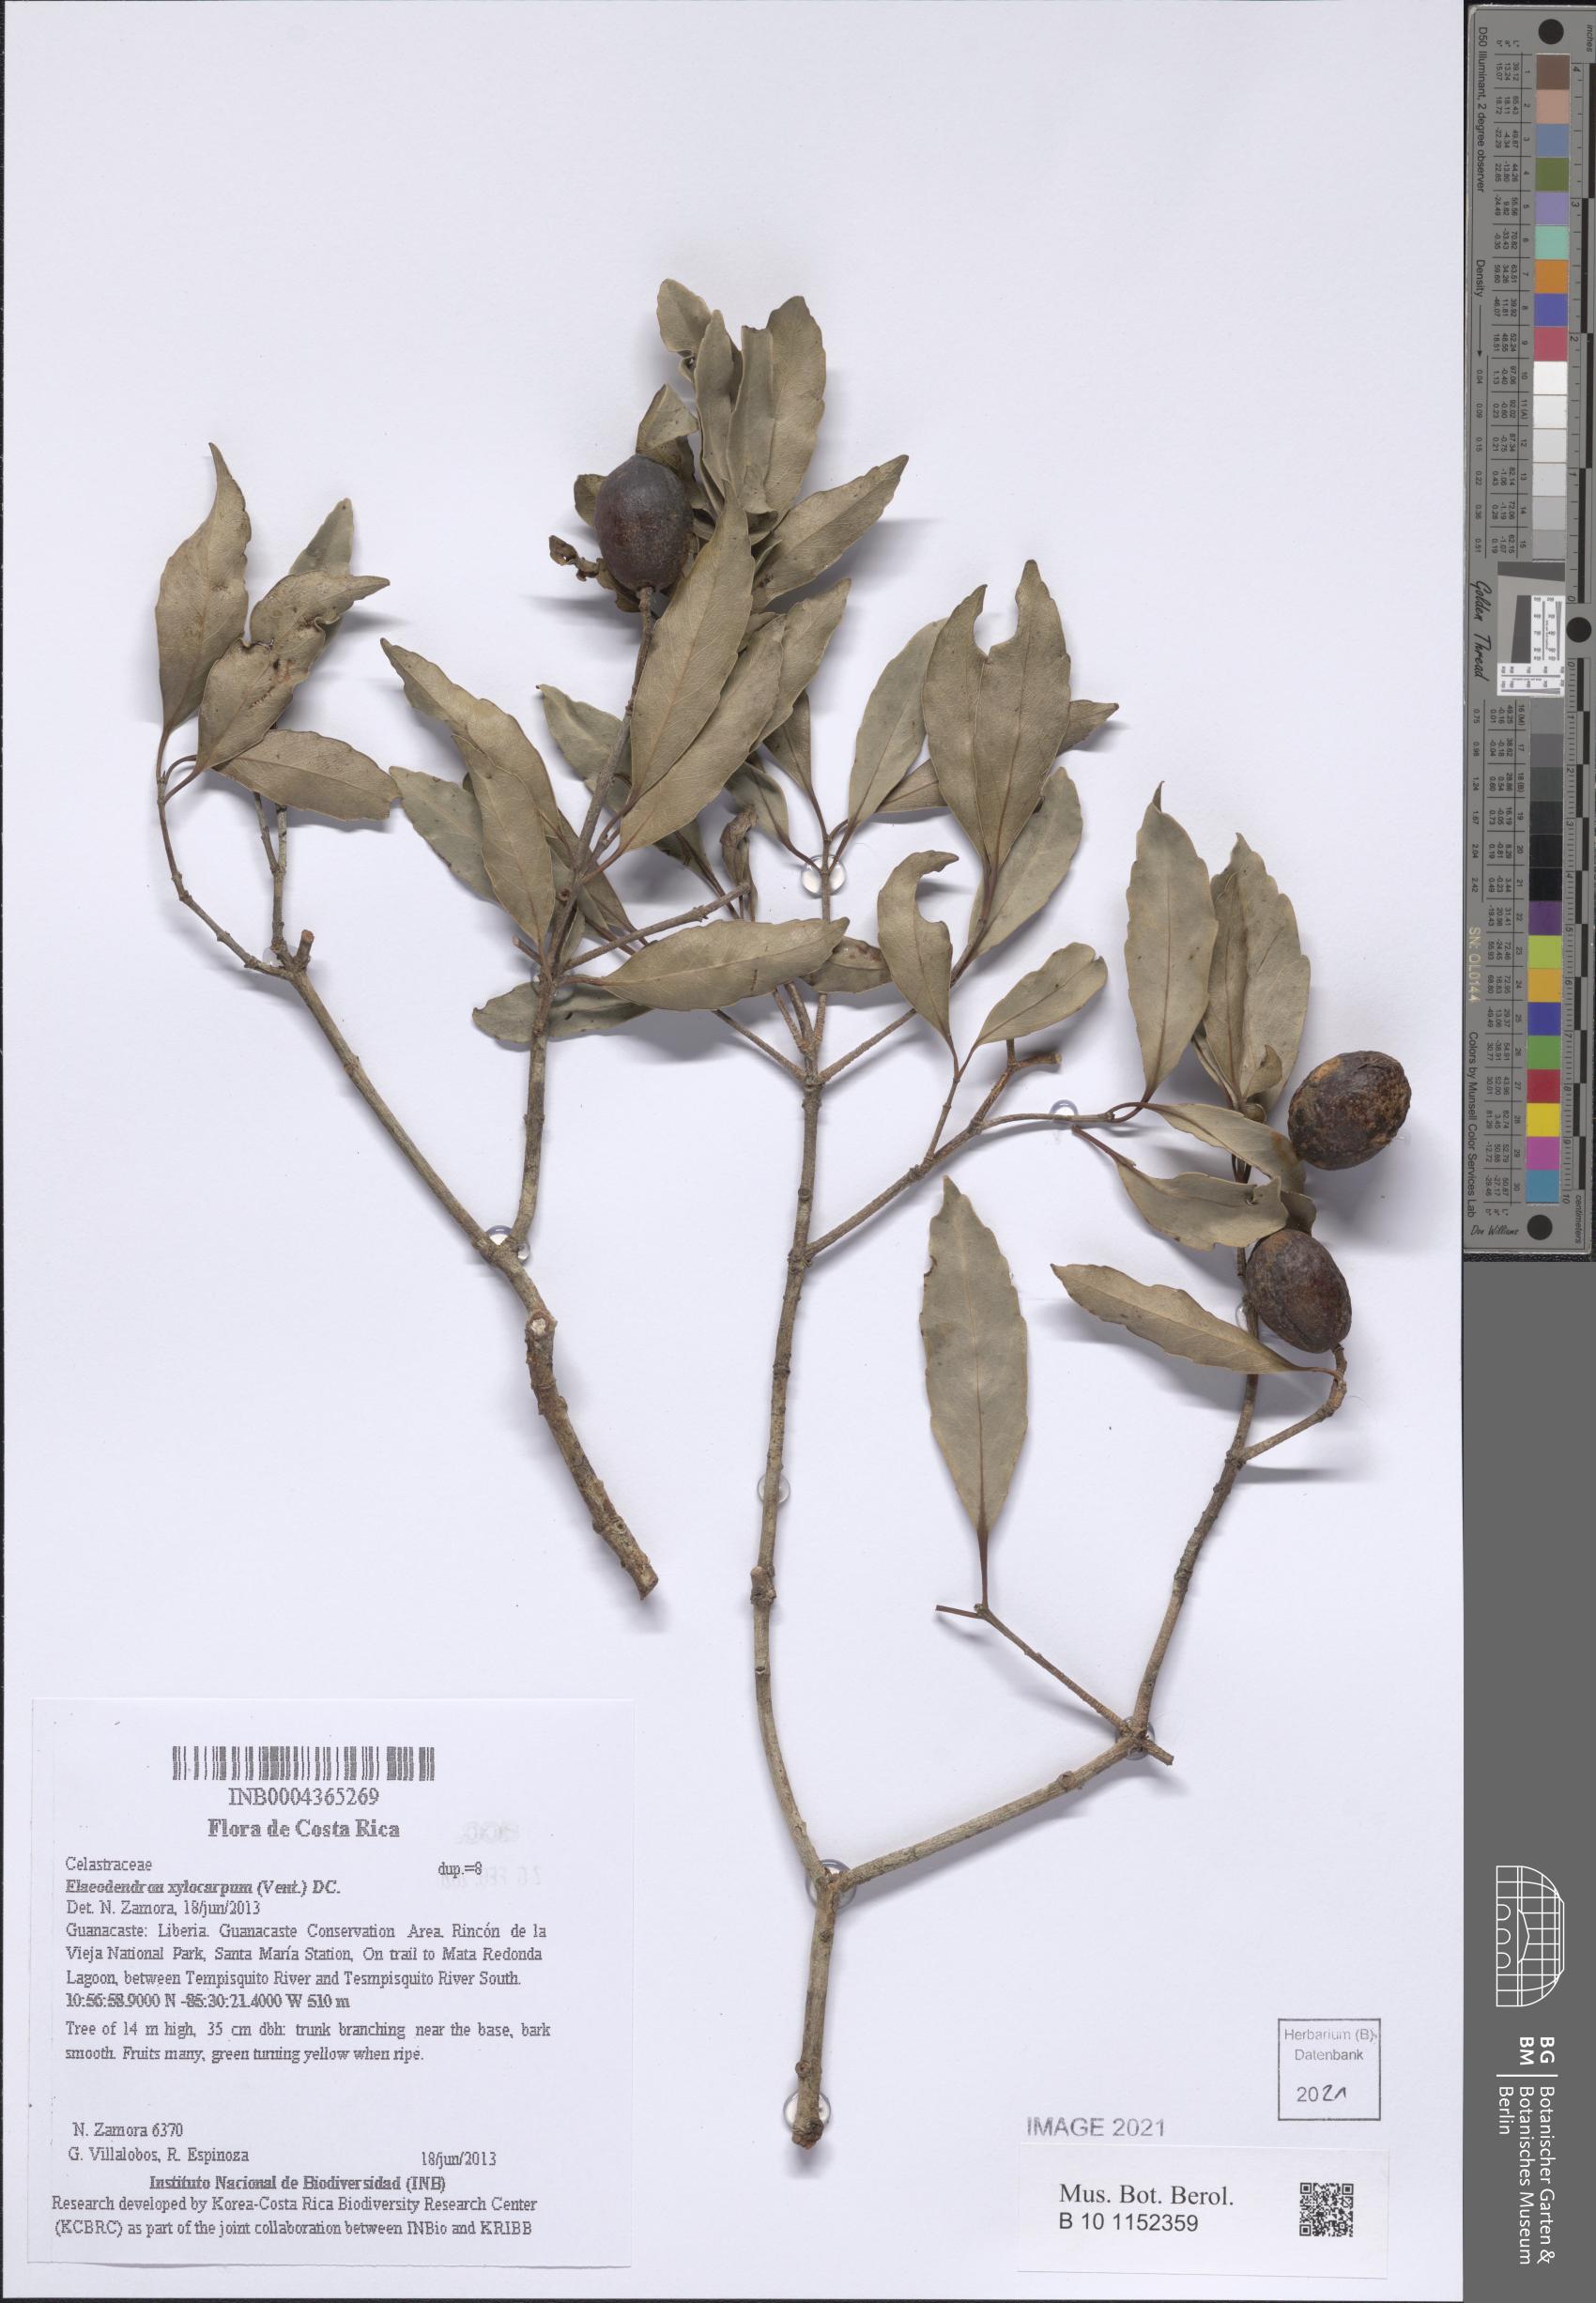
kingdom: Plantae
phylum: Tracheophyta
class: Magnoliopsida
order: Celastrales
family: Celastraceae
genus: Elaeodendron
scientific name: Elaeodendron xylocarpum
